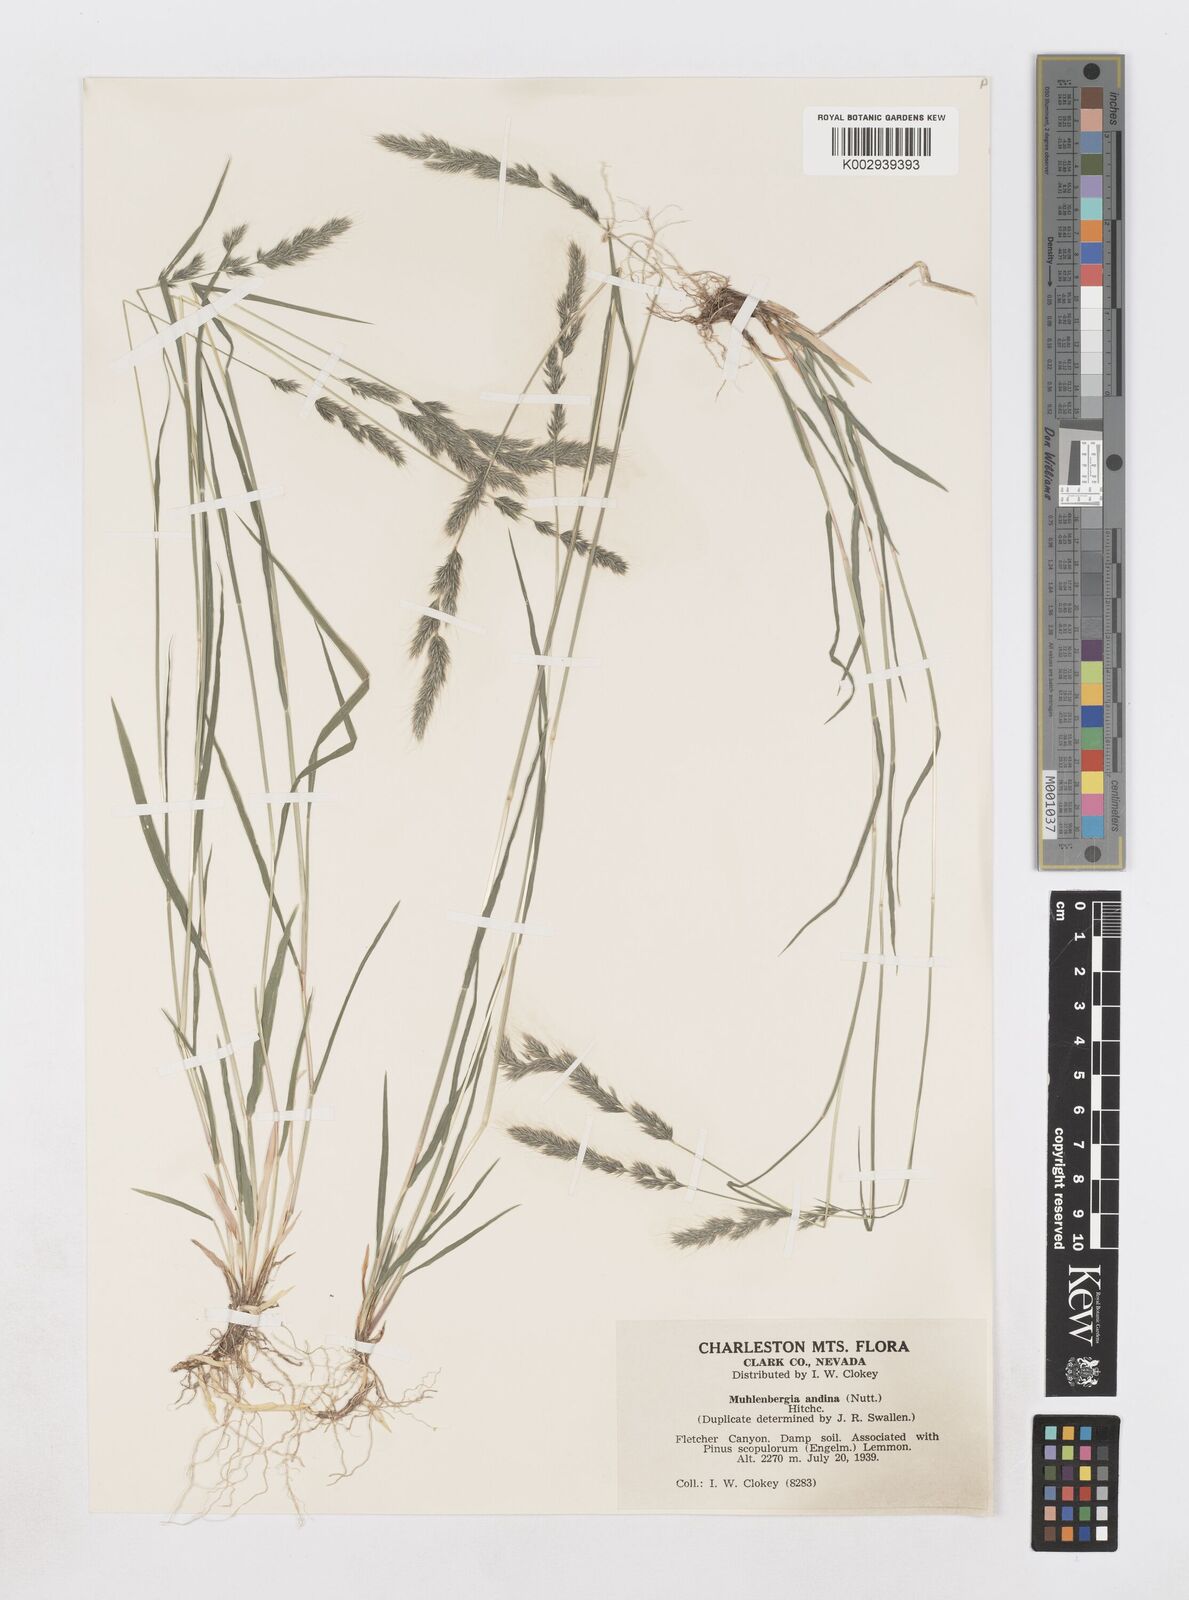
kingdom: Plantae
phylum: Tracheophyta
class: Liliopsida
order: Poales
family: Poaceae
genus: Muhlenbergia
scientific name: Muhlenbergia andina
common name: Foxtail muhly
